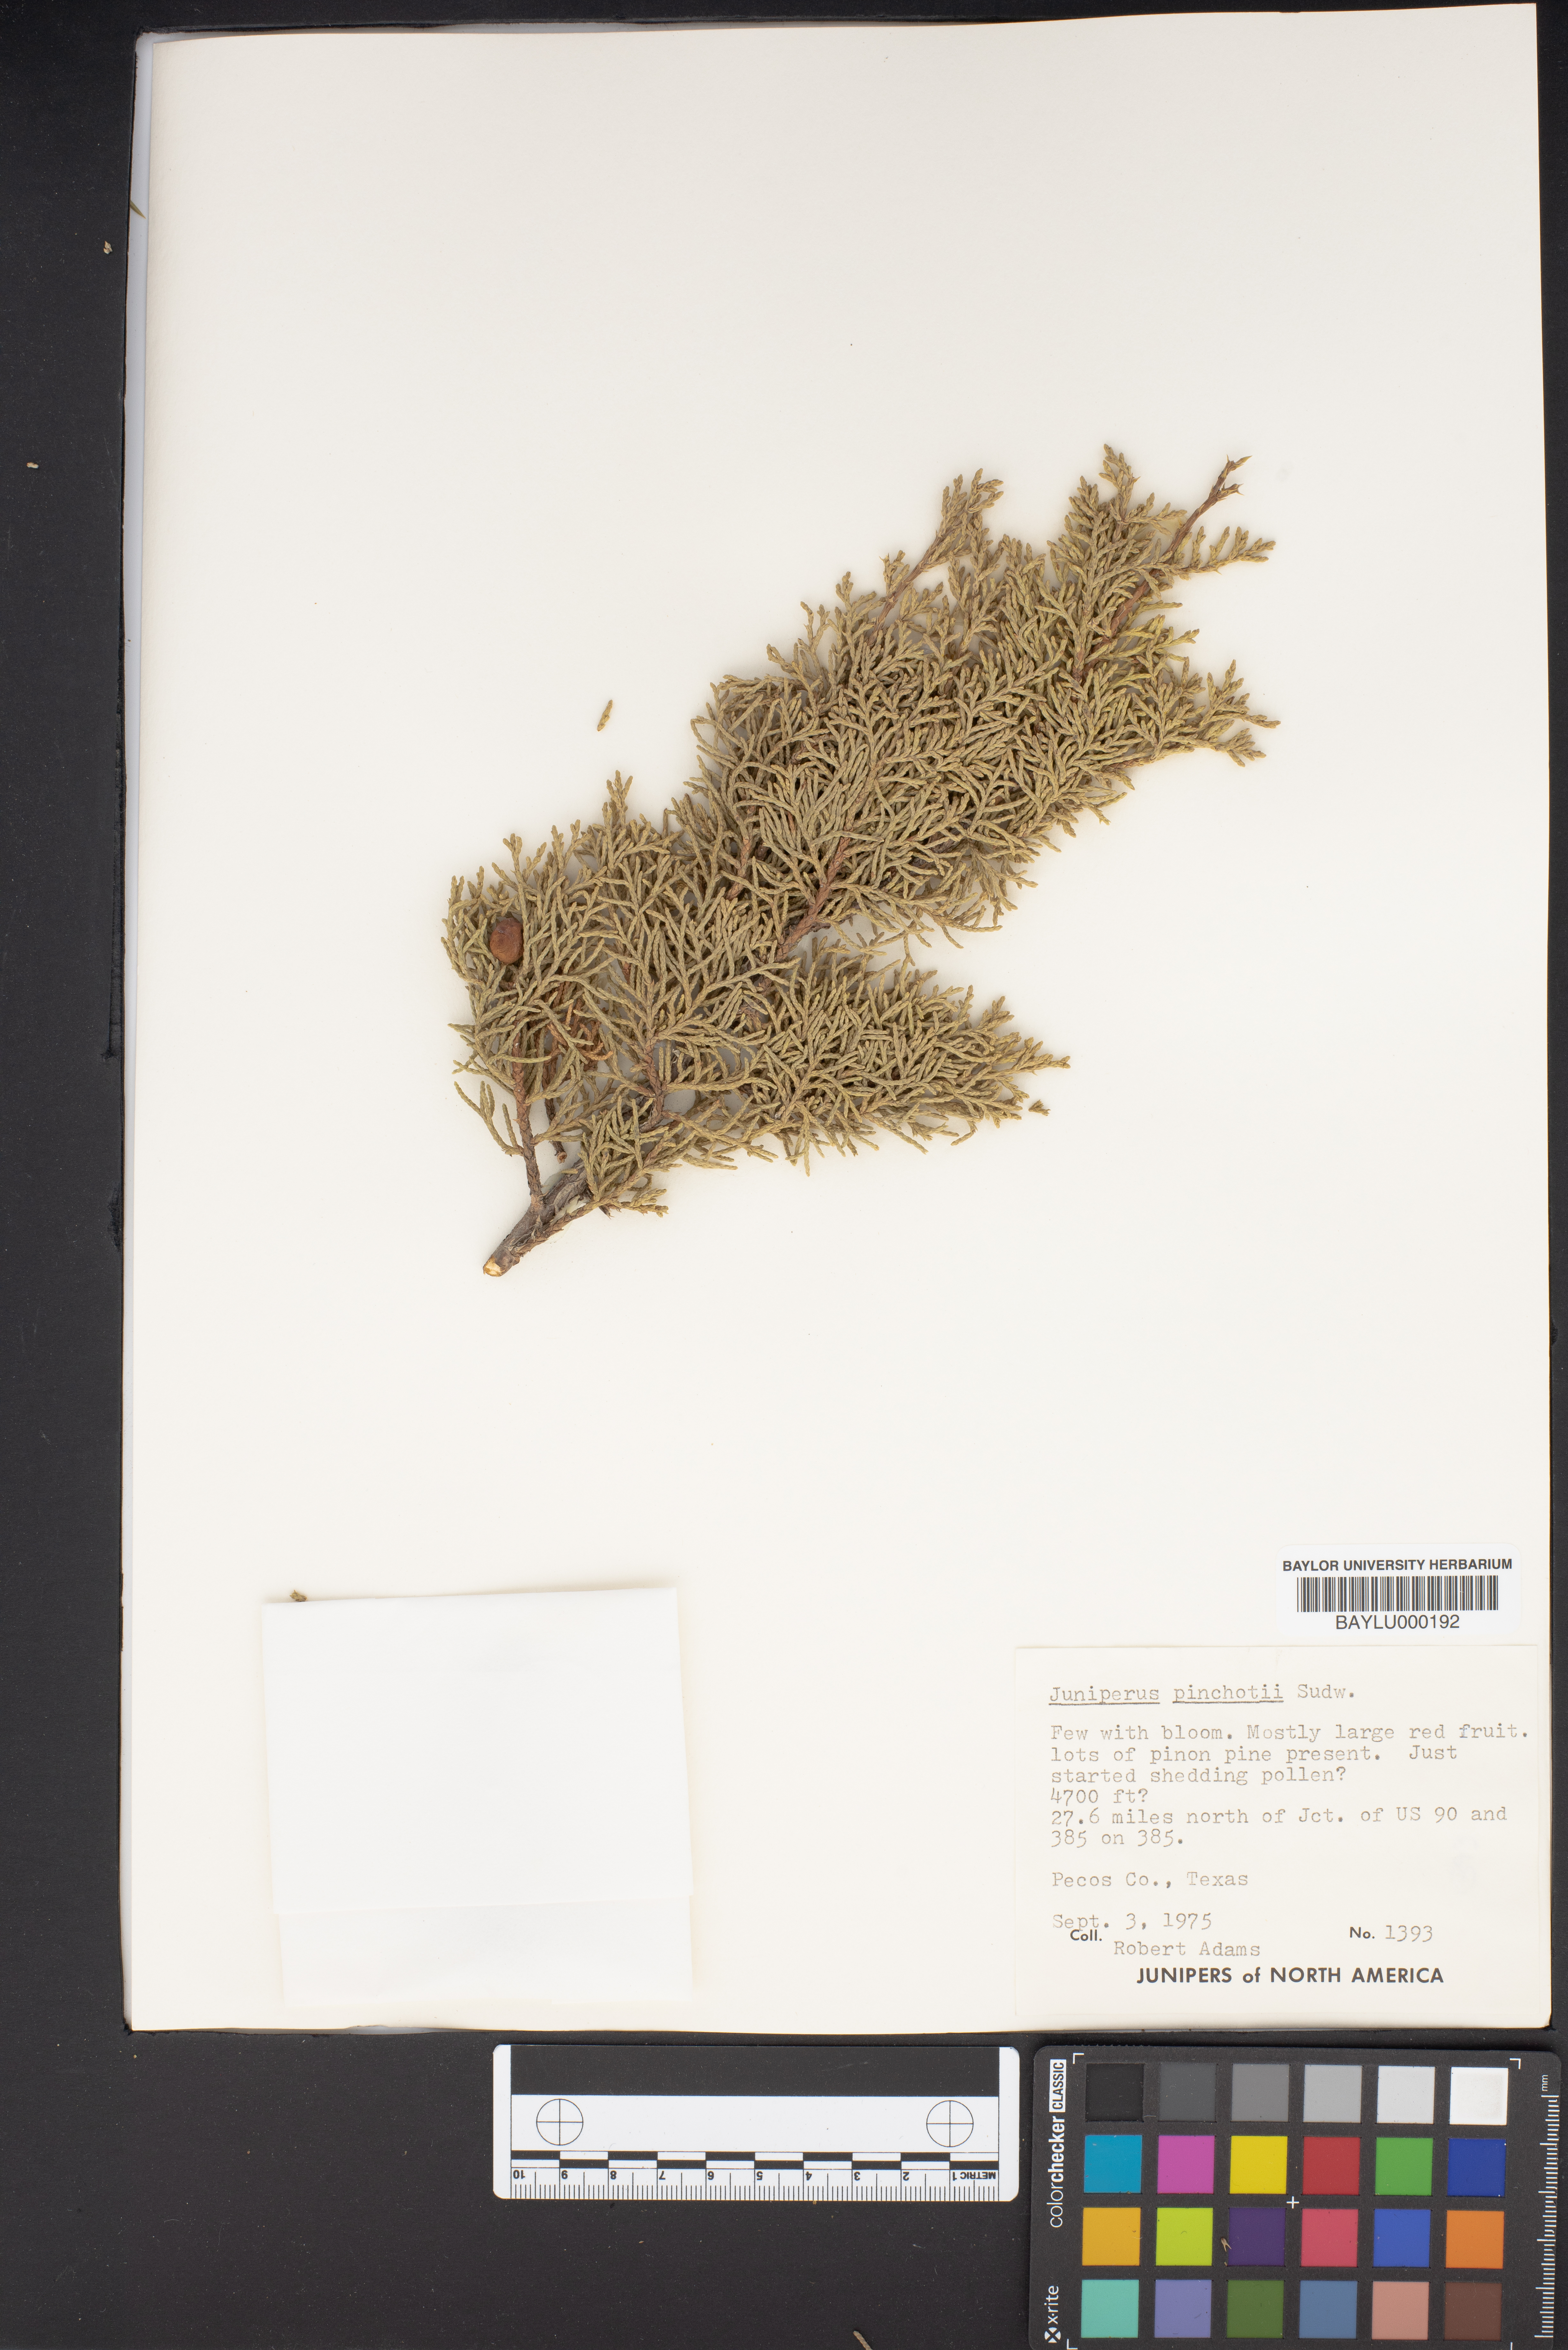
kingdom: Plantae
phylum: Tracheophyta
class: Pinopsida
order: Pinales
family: Cupressaceae
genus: Juniperus
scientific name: Juniperus pinchotii
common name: Pinchot juniper
